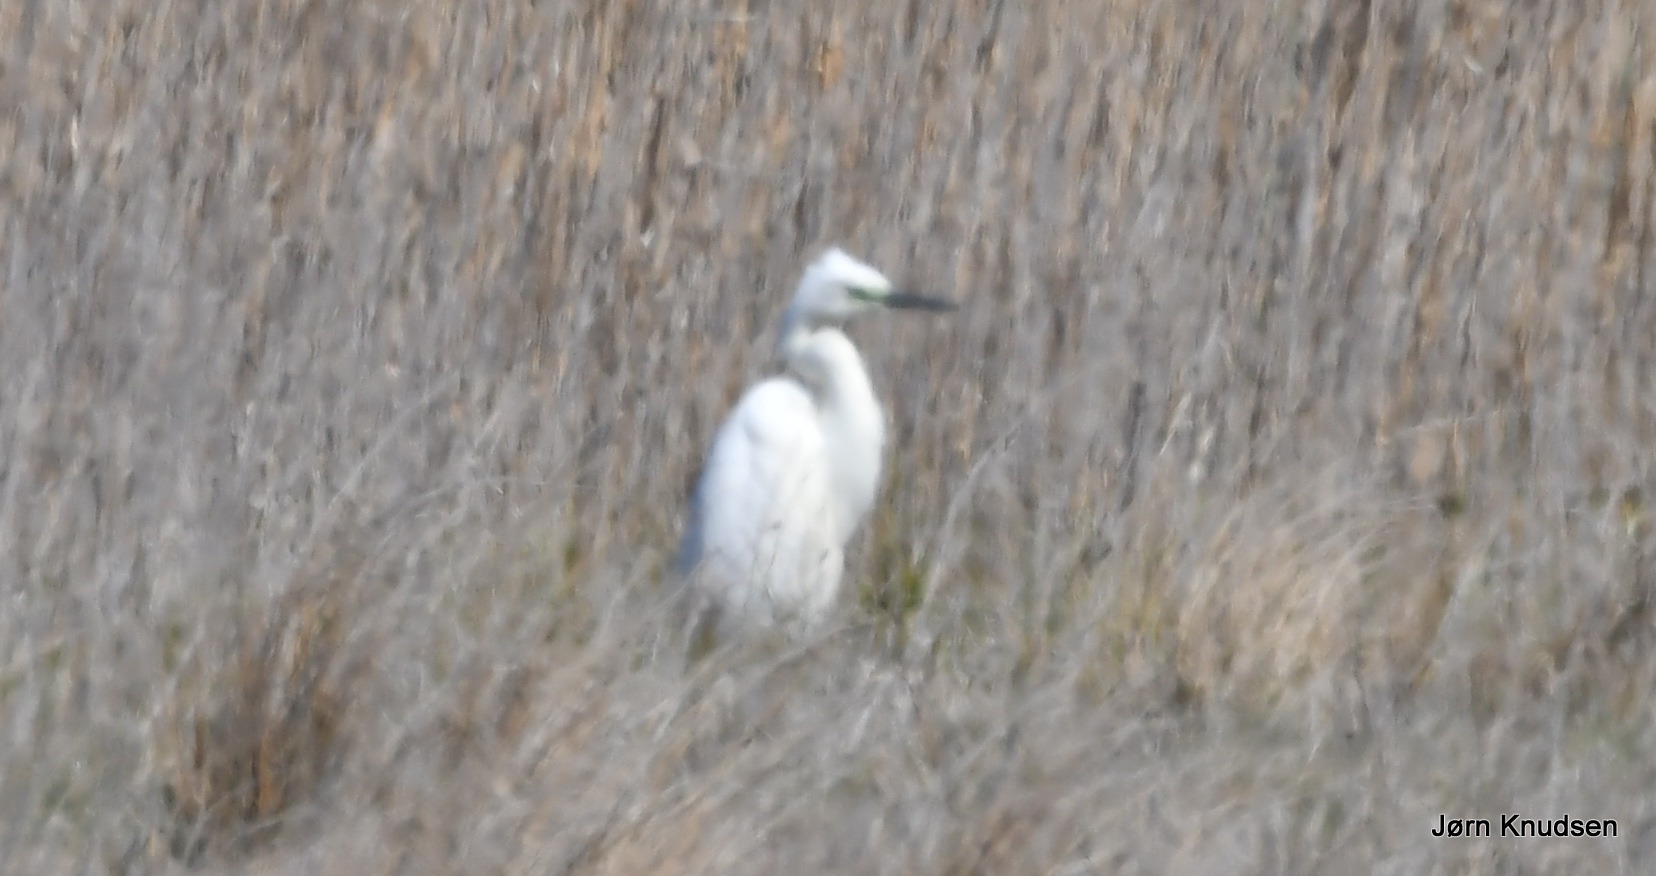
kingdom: Animalia
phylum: Chordata
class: Aves
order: Pelecaniformes
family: Ardeidae
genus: Ardea
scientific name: Ardea alba
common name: Sølvhejre
